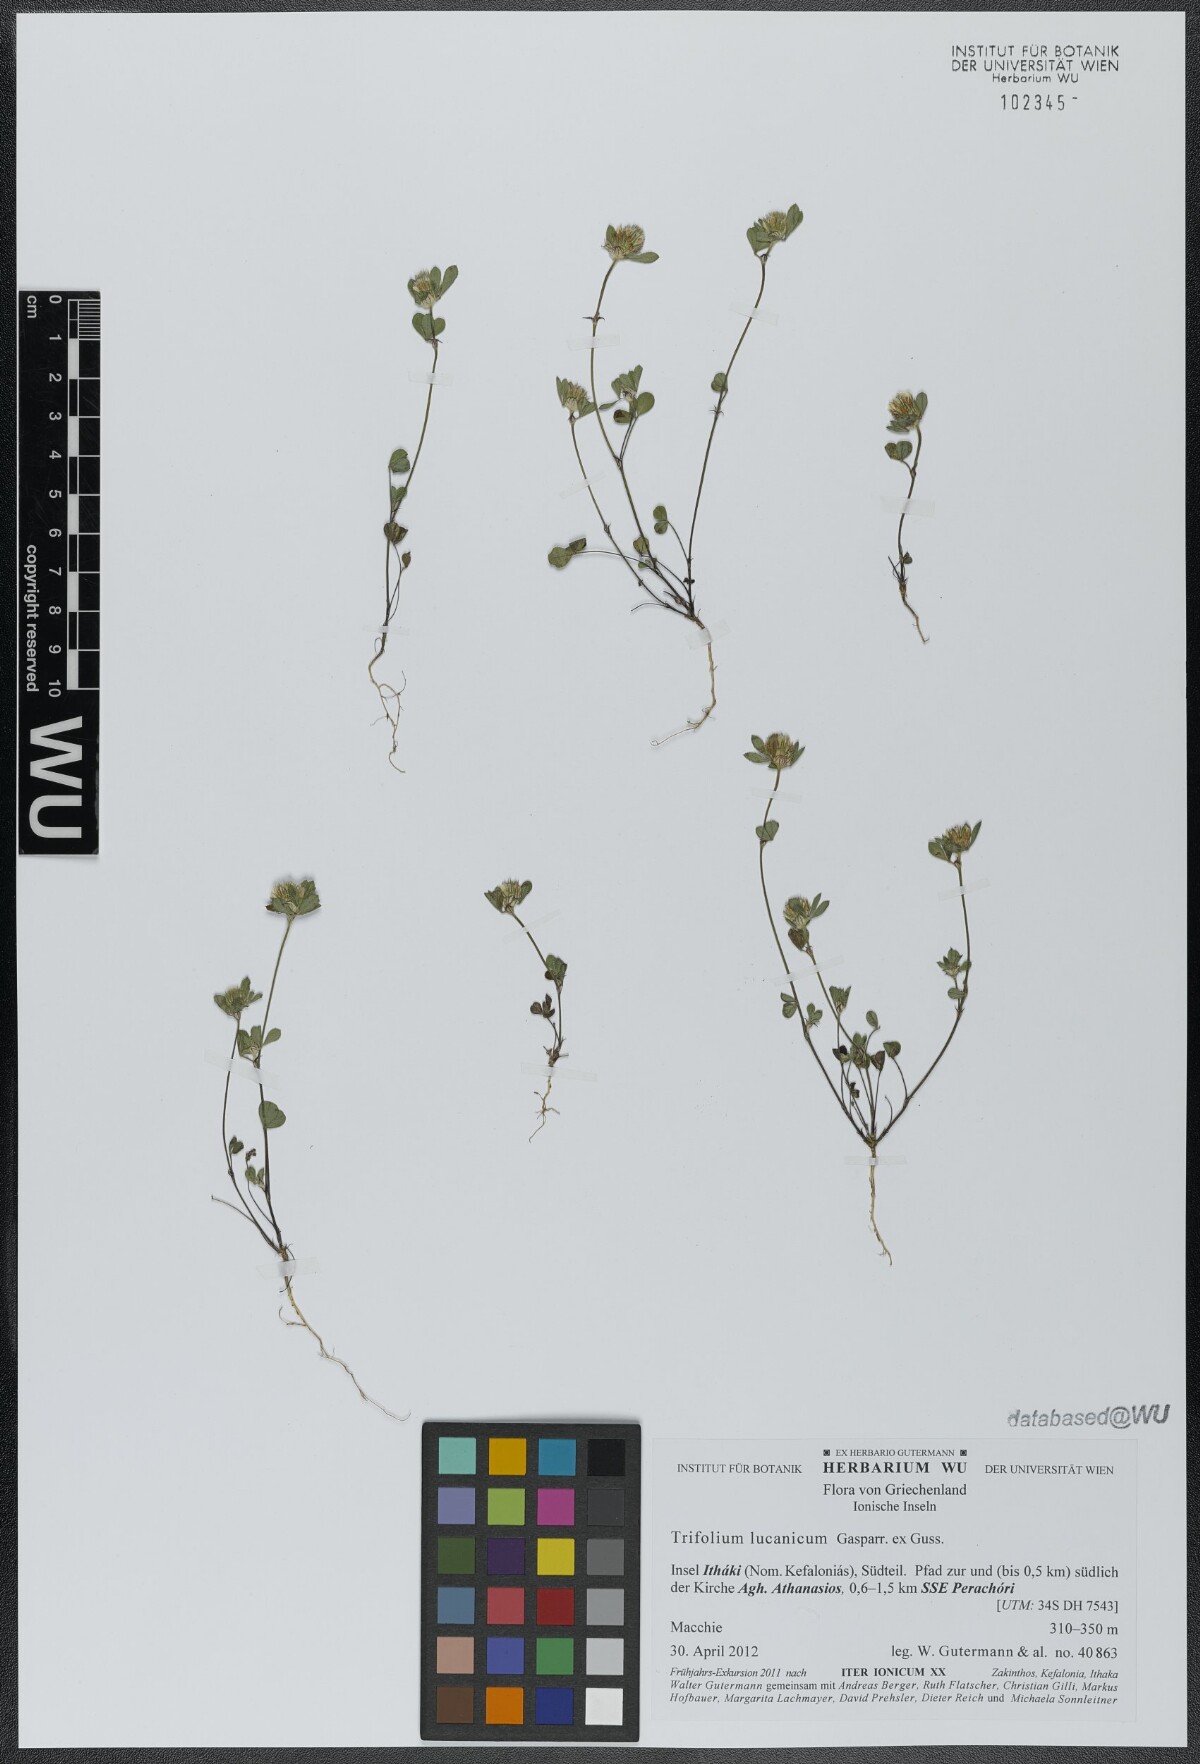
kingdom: Plantae
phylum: Tracheophyta
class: Magnoliopsida
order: Fabales
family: Fabaceae
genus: Trifolium
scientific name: Trifolium lucanicum
